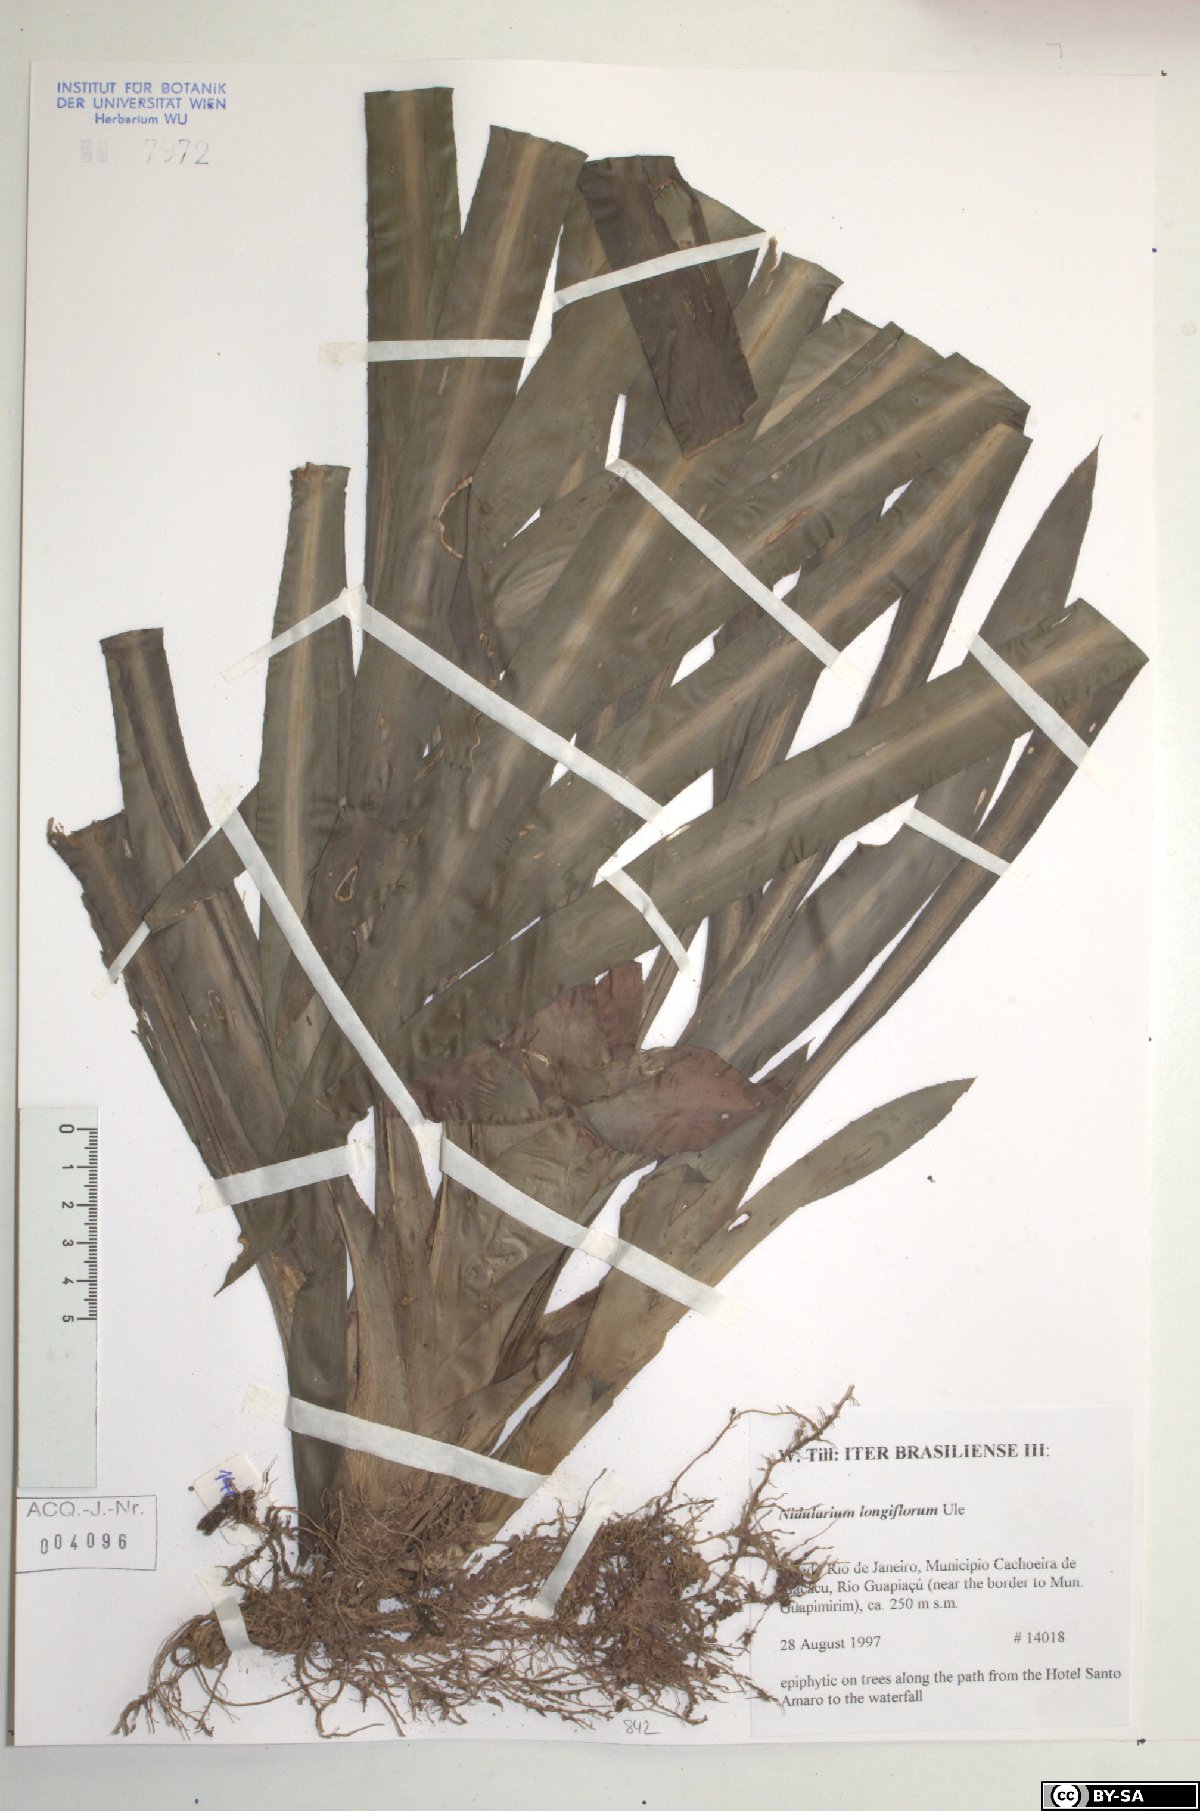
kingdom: Plantae
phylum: Tracheophyta
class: Liliopsida
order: Poales
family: Bromeliaceae
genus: Nidularium
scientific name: Nidularium longiflorum
